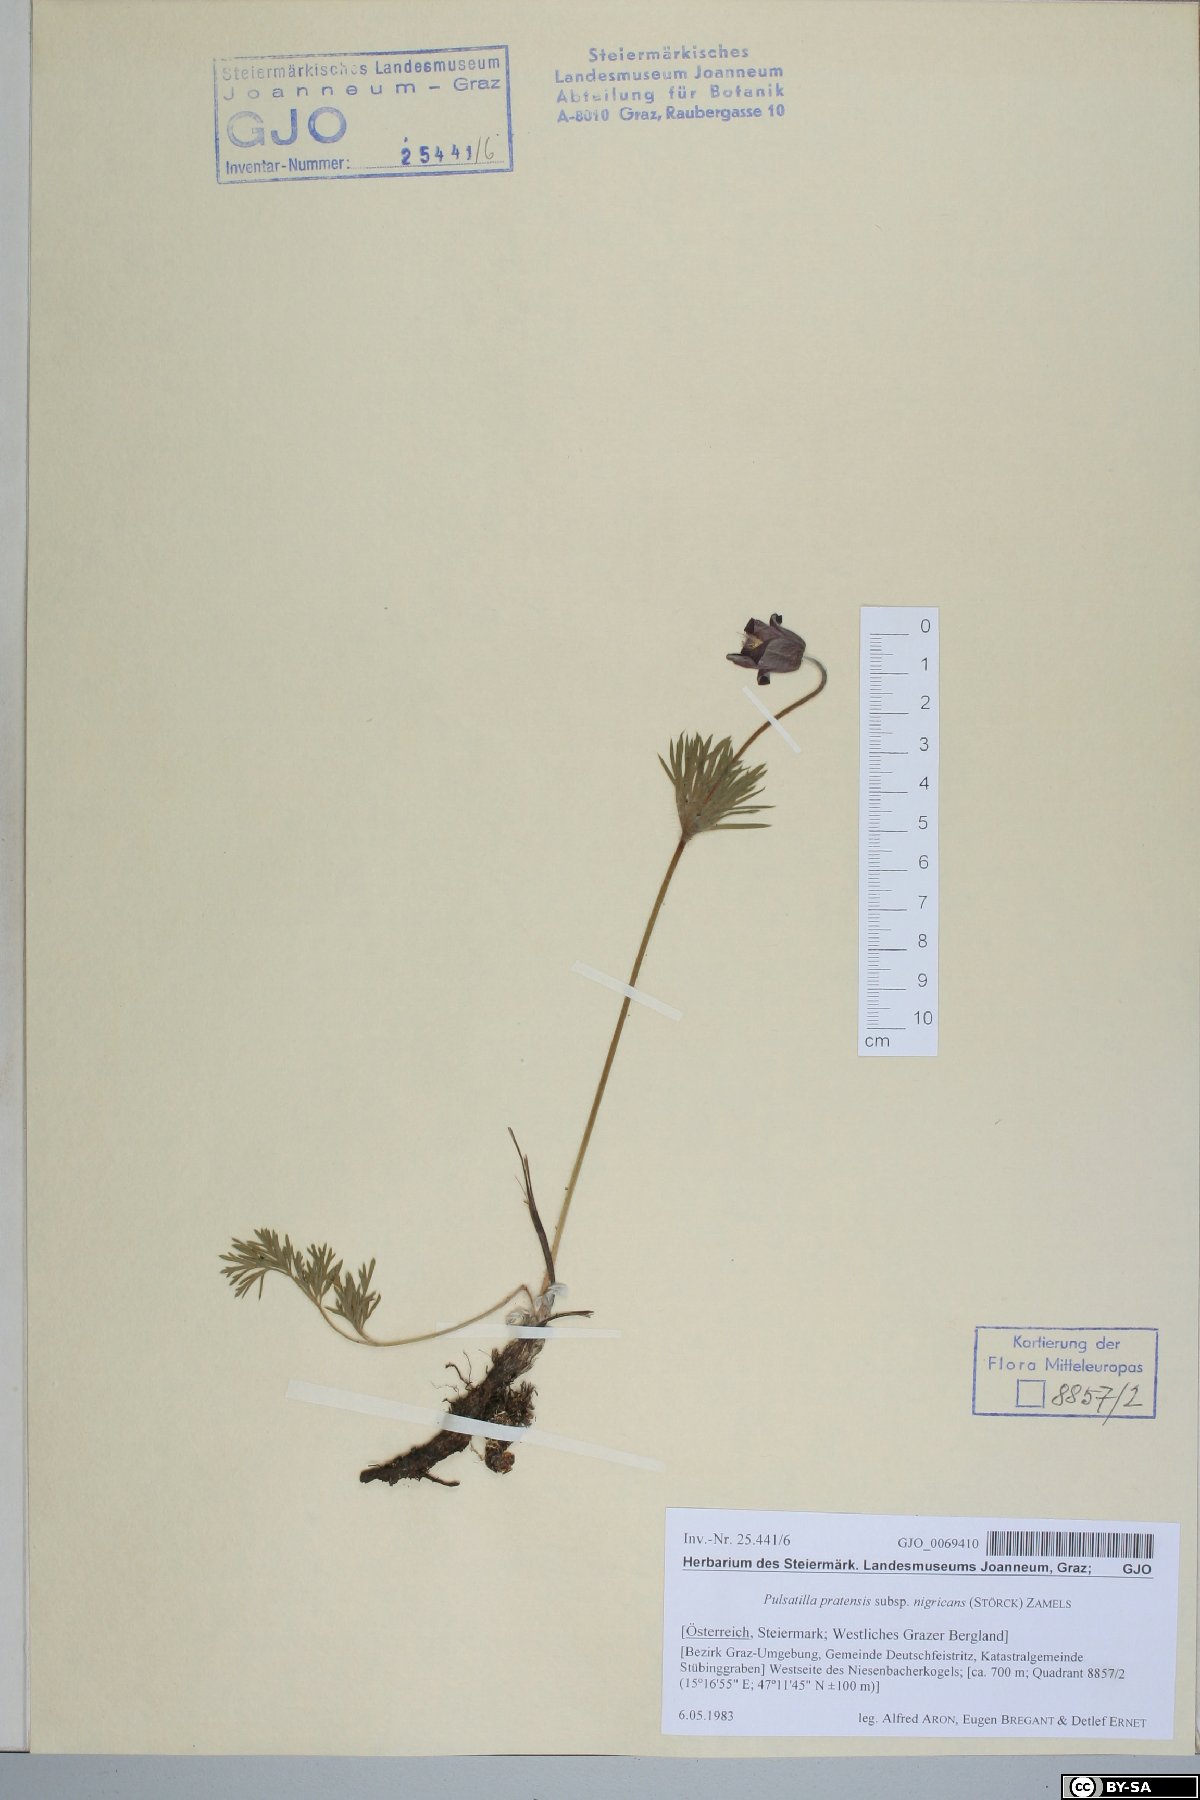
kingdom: Plantae
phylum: Tracheophyta
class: Magnoliopsida
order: Ranunculales
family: Ranunculaceae
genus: Pulsatilla
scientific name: Pulsatilla pratensis
